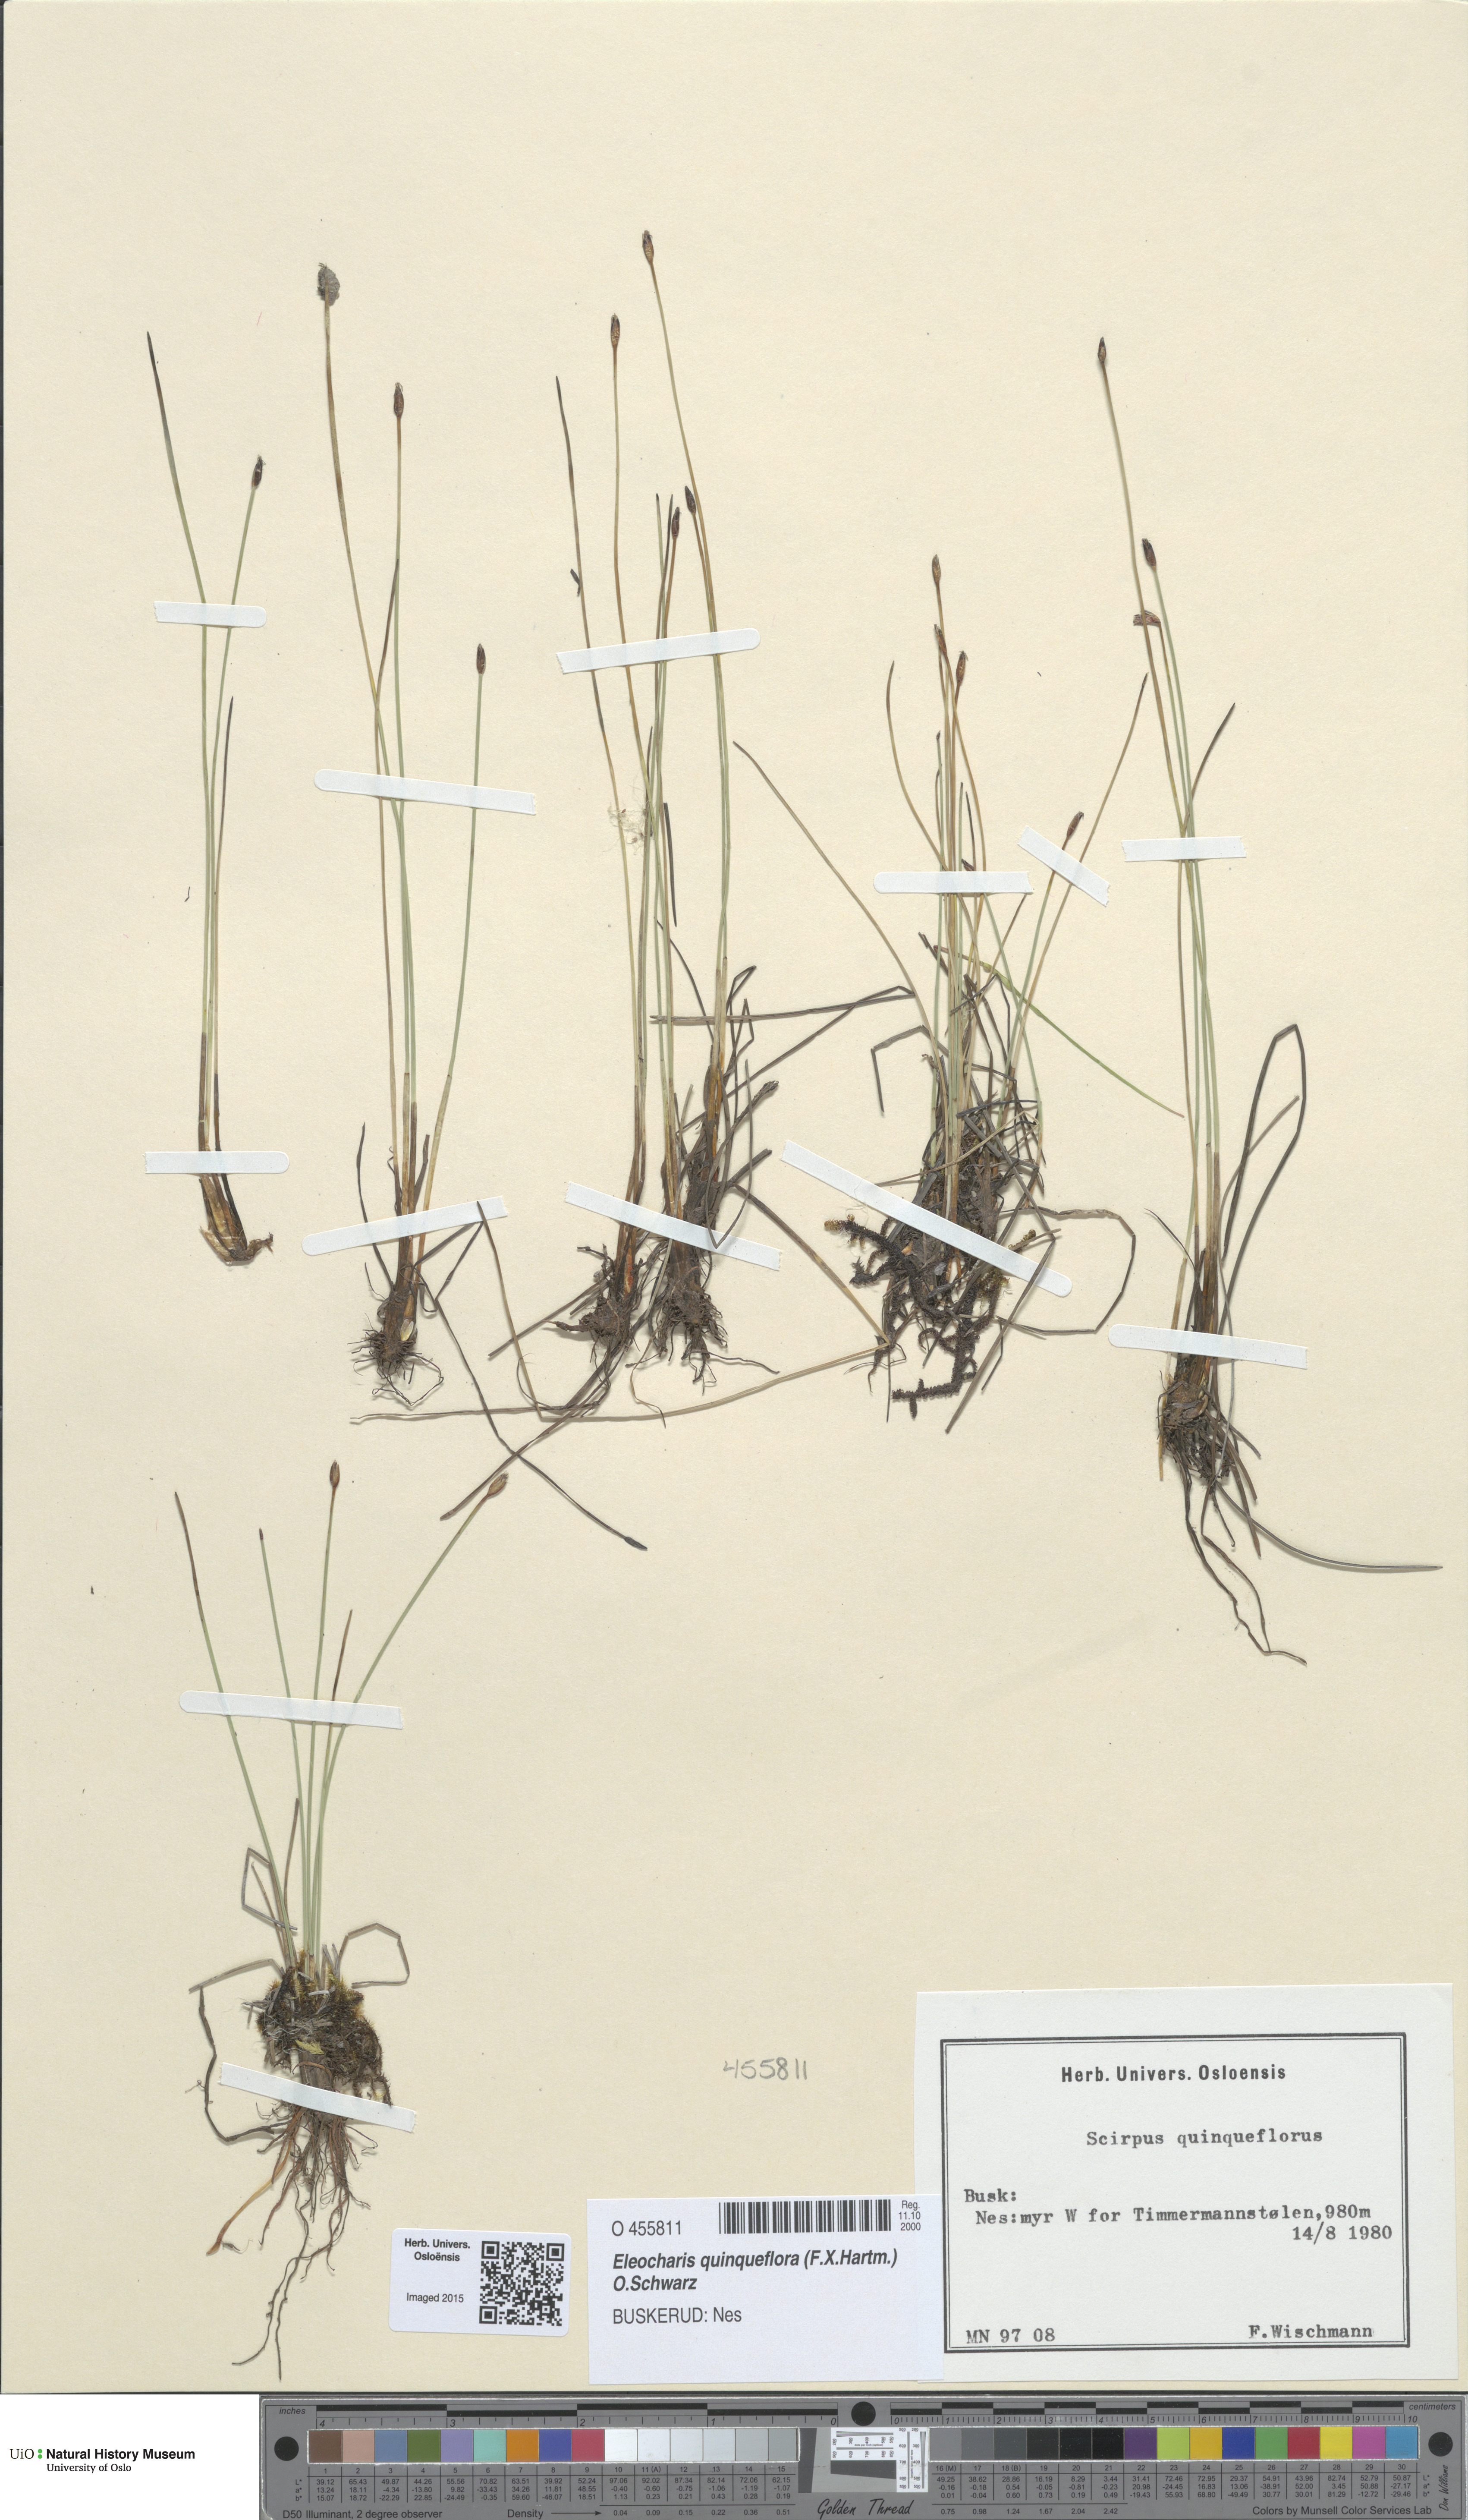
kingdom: Plantae
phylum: Tracheophyta
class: Liliopsida
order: Poales
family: Cyperaceae
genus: Eleocharis
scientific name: Eleocharis quinqueflora
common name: Few-flowered spike-rush
